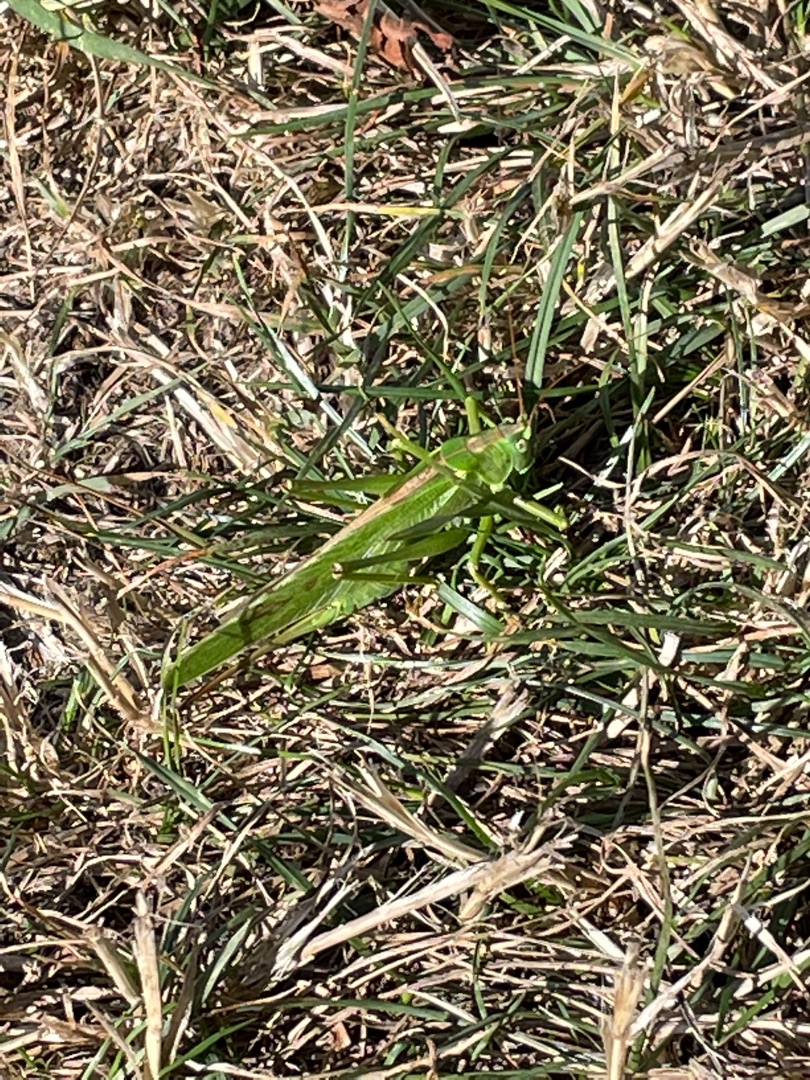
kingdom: Animalia
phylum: Arthropoda
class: Insecta
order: Orthoptera
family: Tettigoniidae
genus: Tettigonia
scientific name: Tettigonia viridissima
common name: Stor grøn løvgræshoppe
